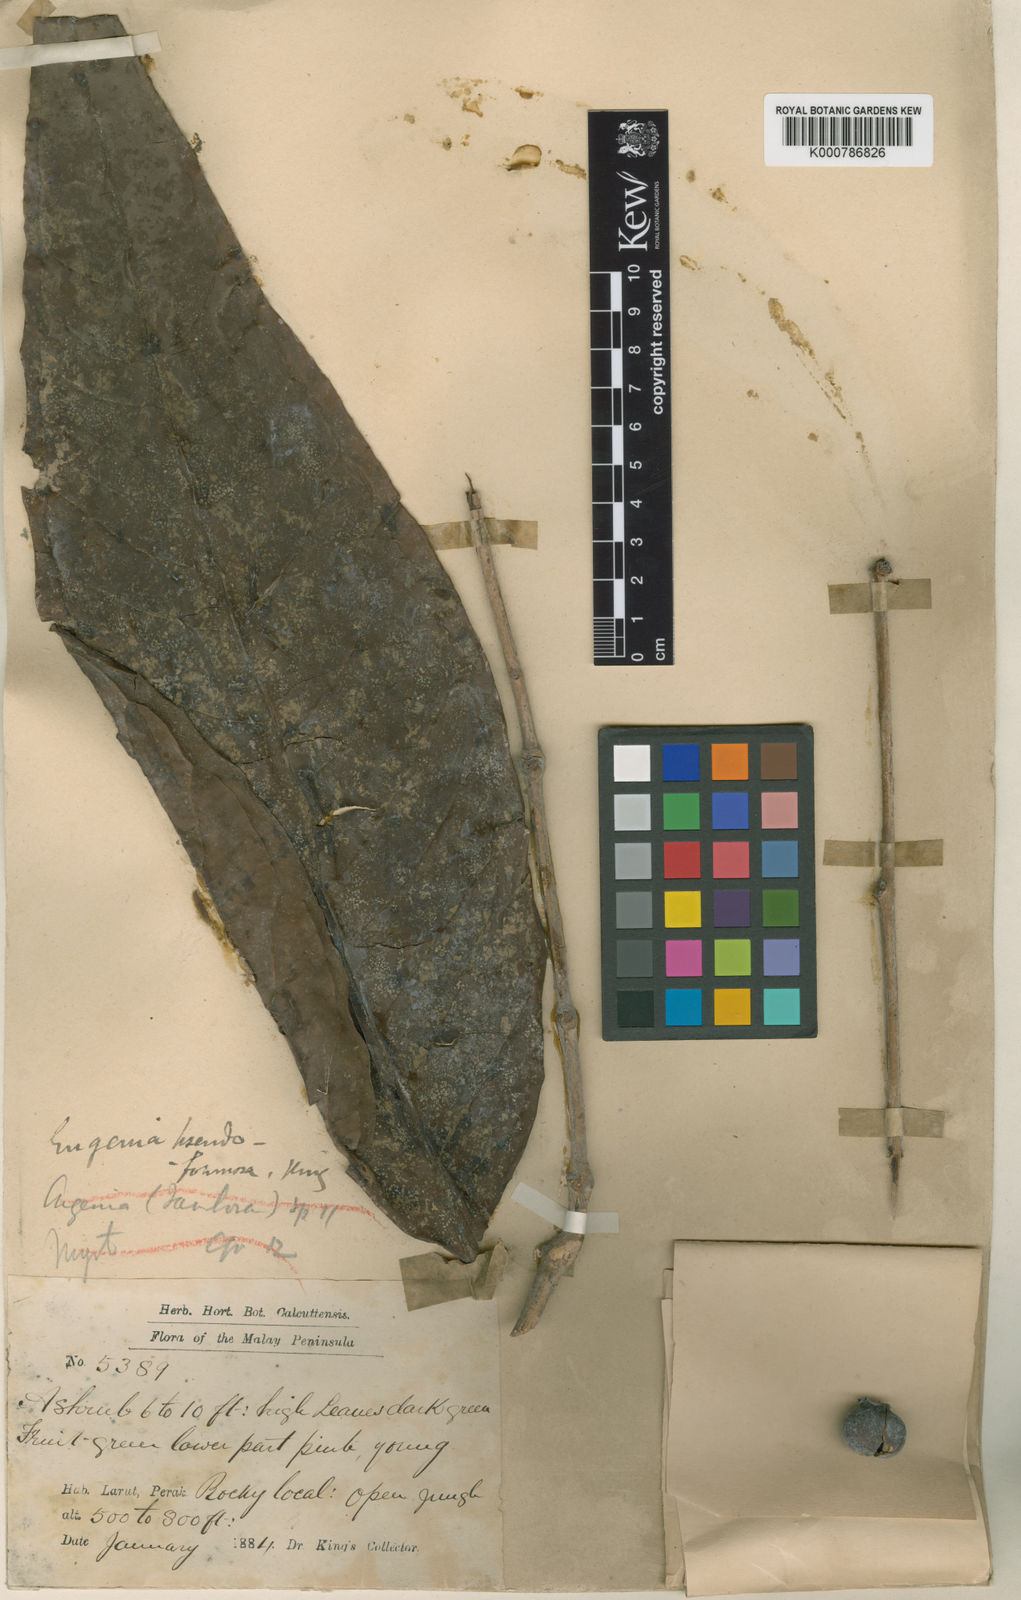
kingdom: Plantae
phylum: Tracheophyta
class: Magnoliopsida
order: Myrtales
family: Myrtaceae
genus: Syzygium
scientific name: Syzygium formosum
